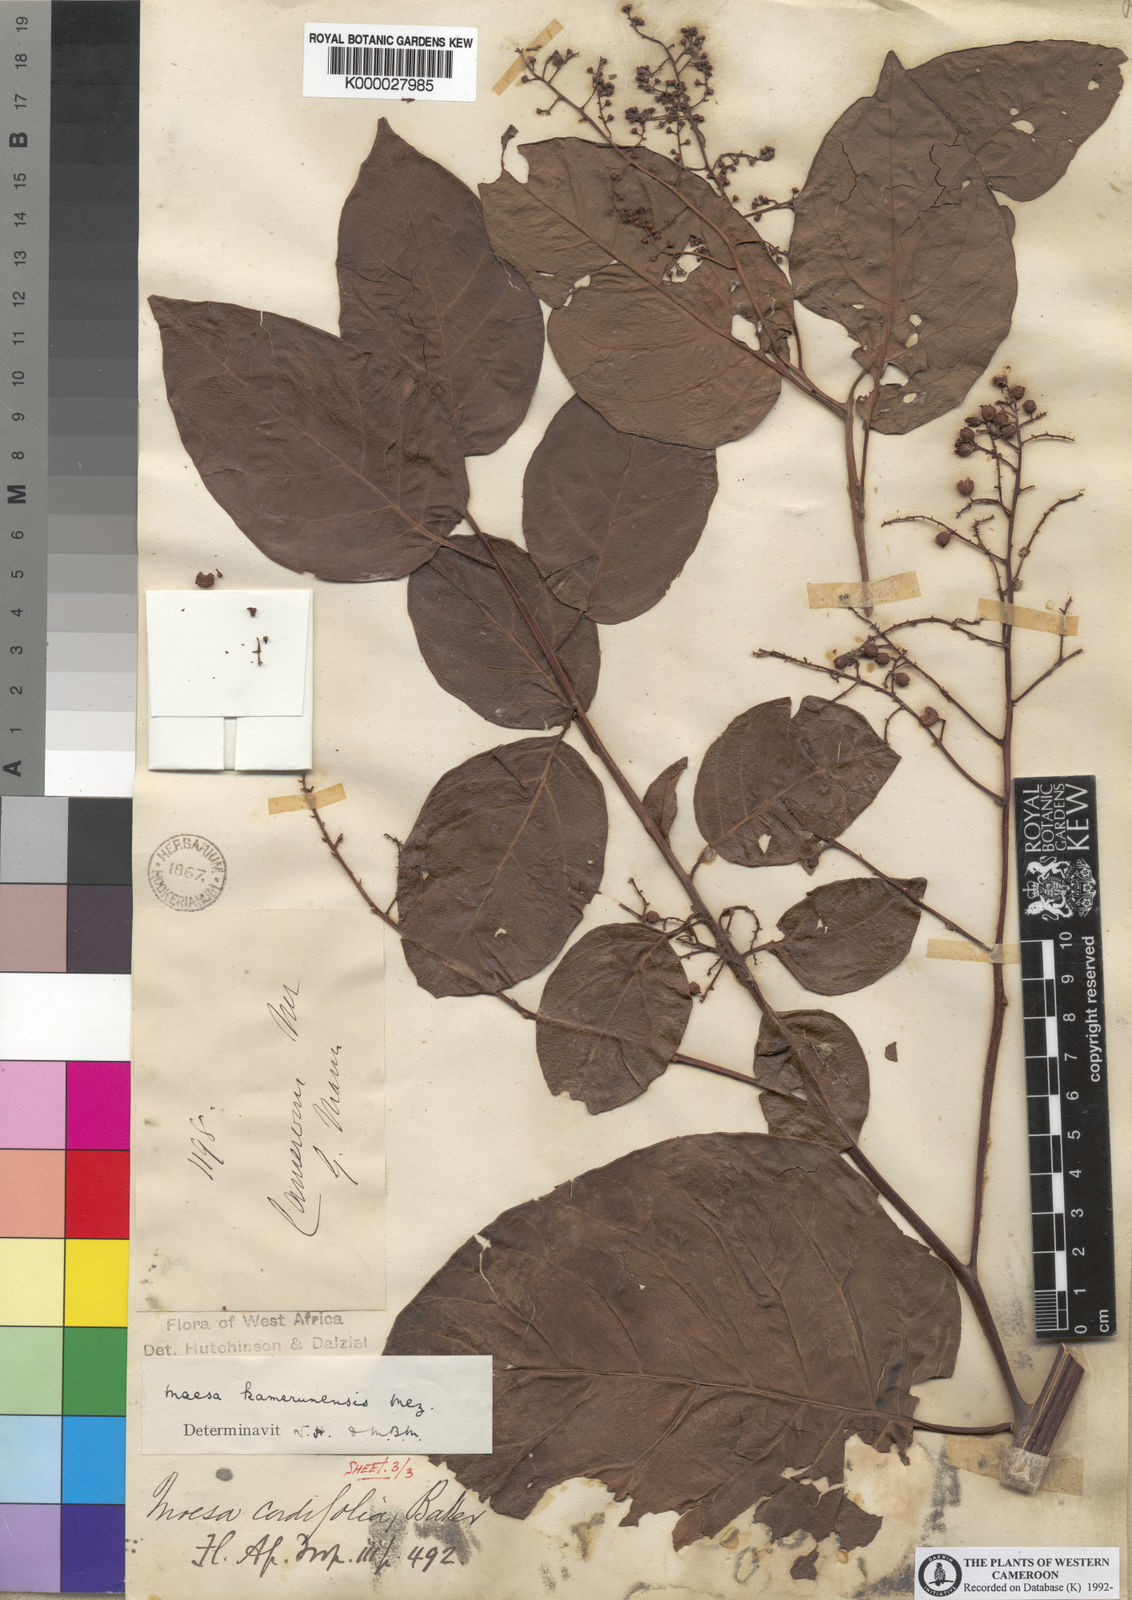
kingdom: Plantae
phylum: Tracheophyta
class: Magnoliopsida
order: Ericales
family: Primulaceae
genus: Maesa
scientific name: Maesa kamerunensis
